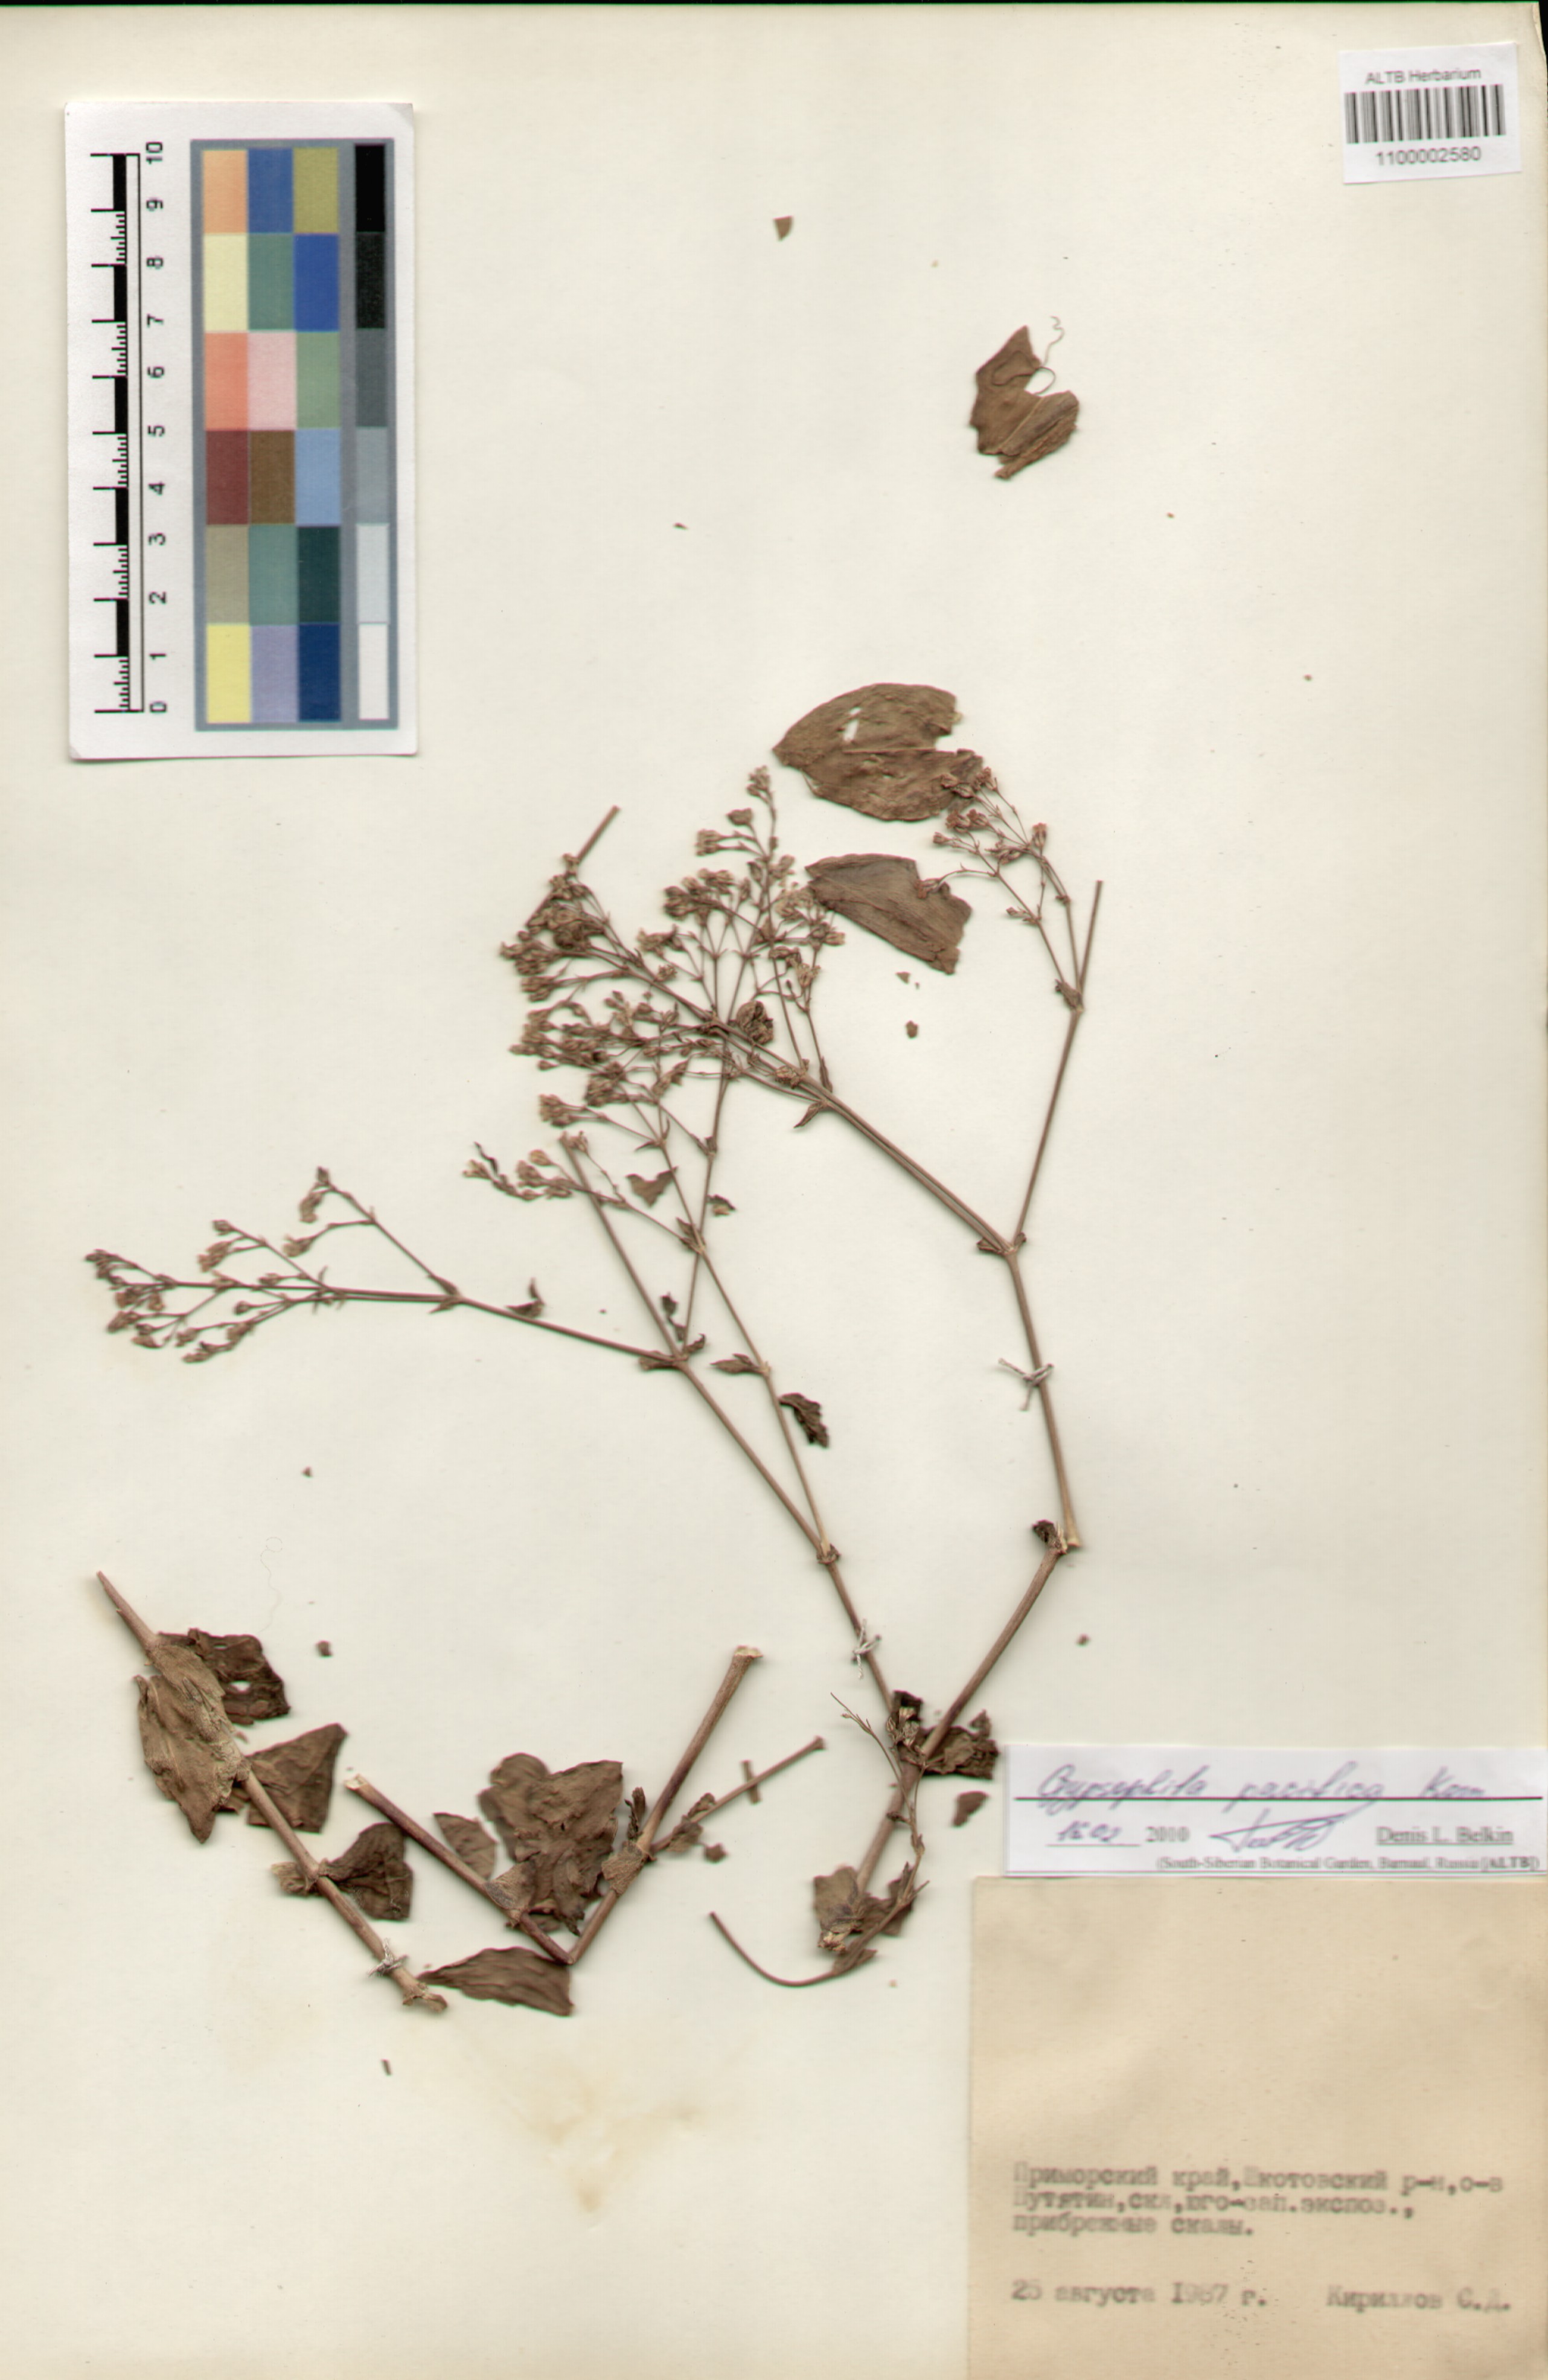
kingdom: Plantae
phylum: Tracheophyta
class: Magnoliopsida
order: Caryophyllales
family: Caryophyllaceae
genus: Gypsophila
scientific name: Gypsophila pacifica
